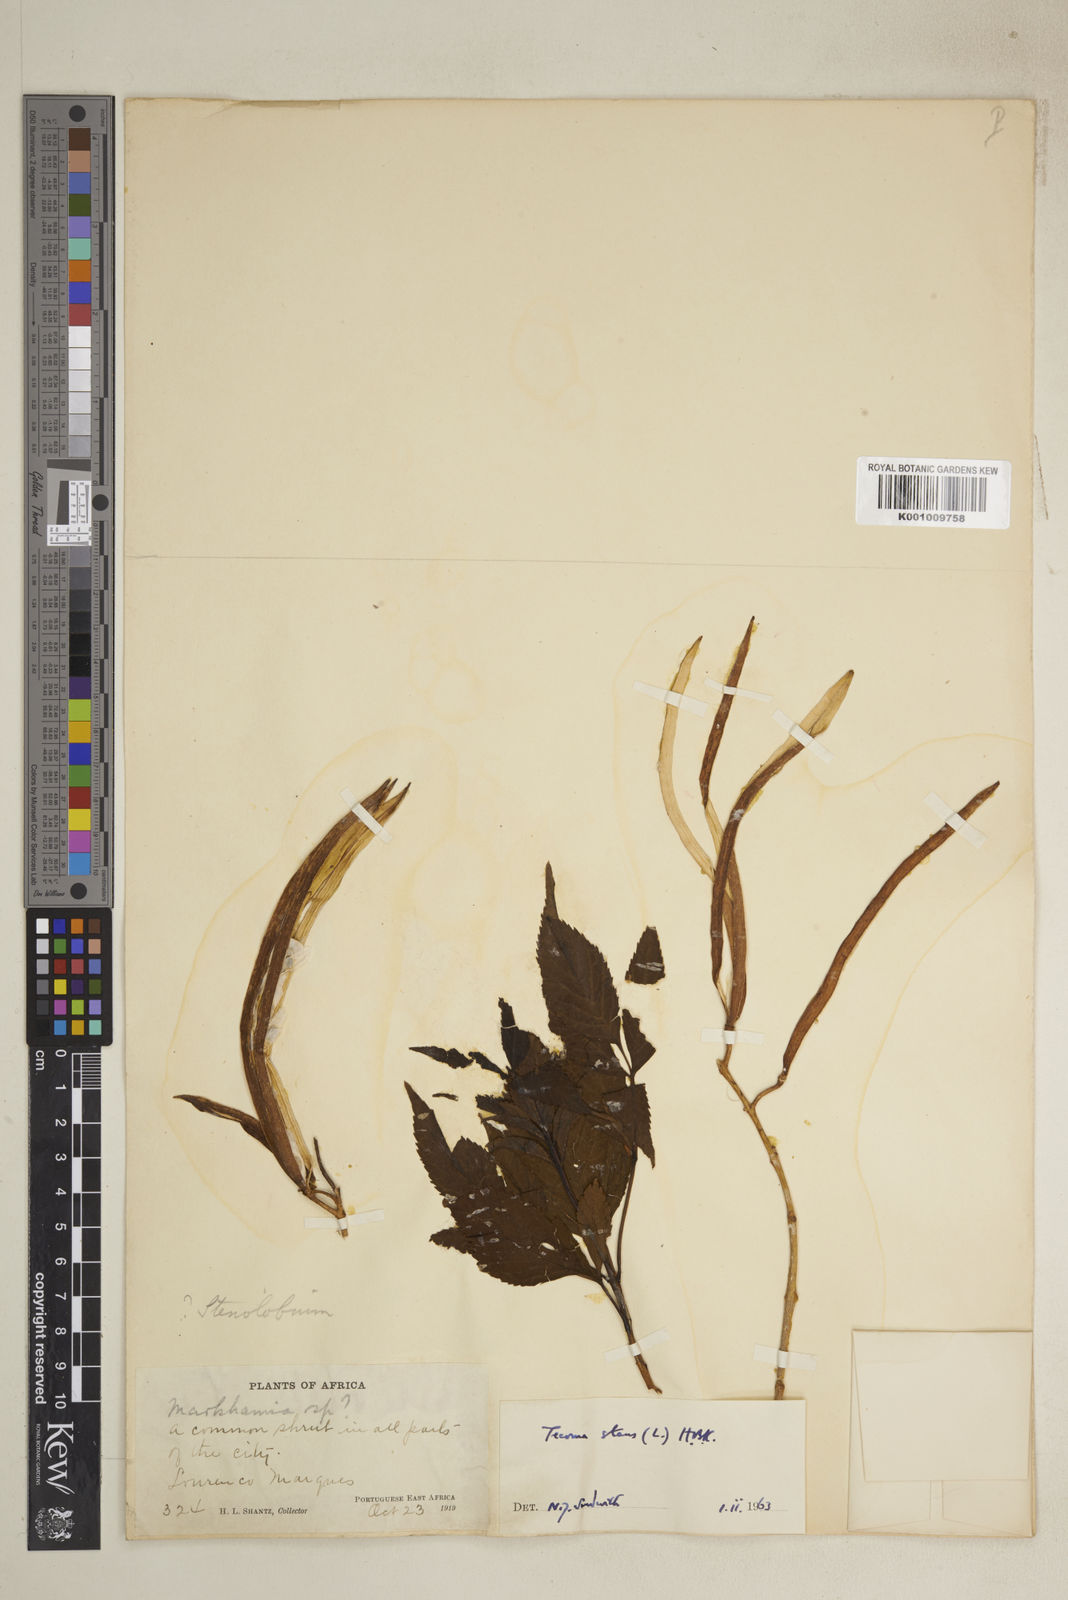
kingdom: Plantae
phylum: Tracheophyta
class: Magnoliopsida
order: Lamiales
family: Bignoniaceae
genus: Tecoma
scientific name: Tecoma stans
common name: Yellow trumpetbush
